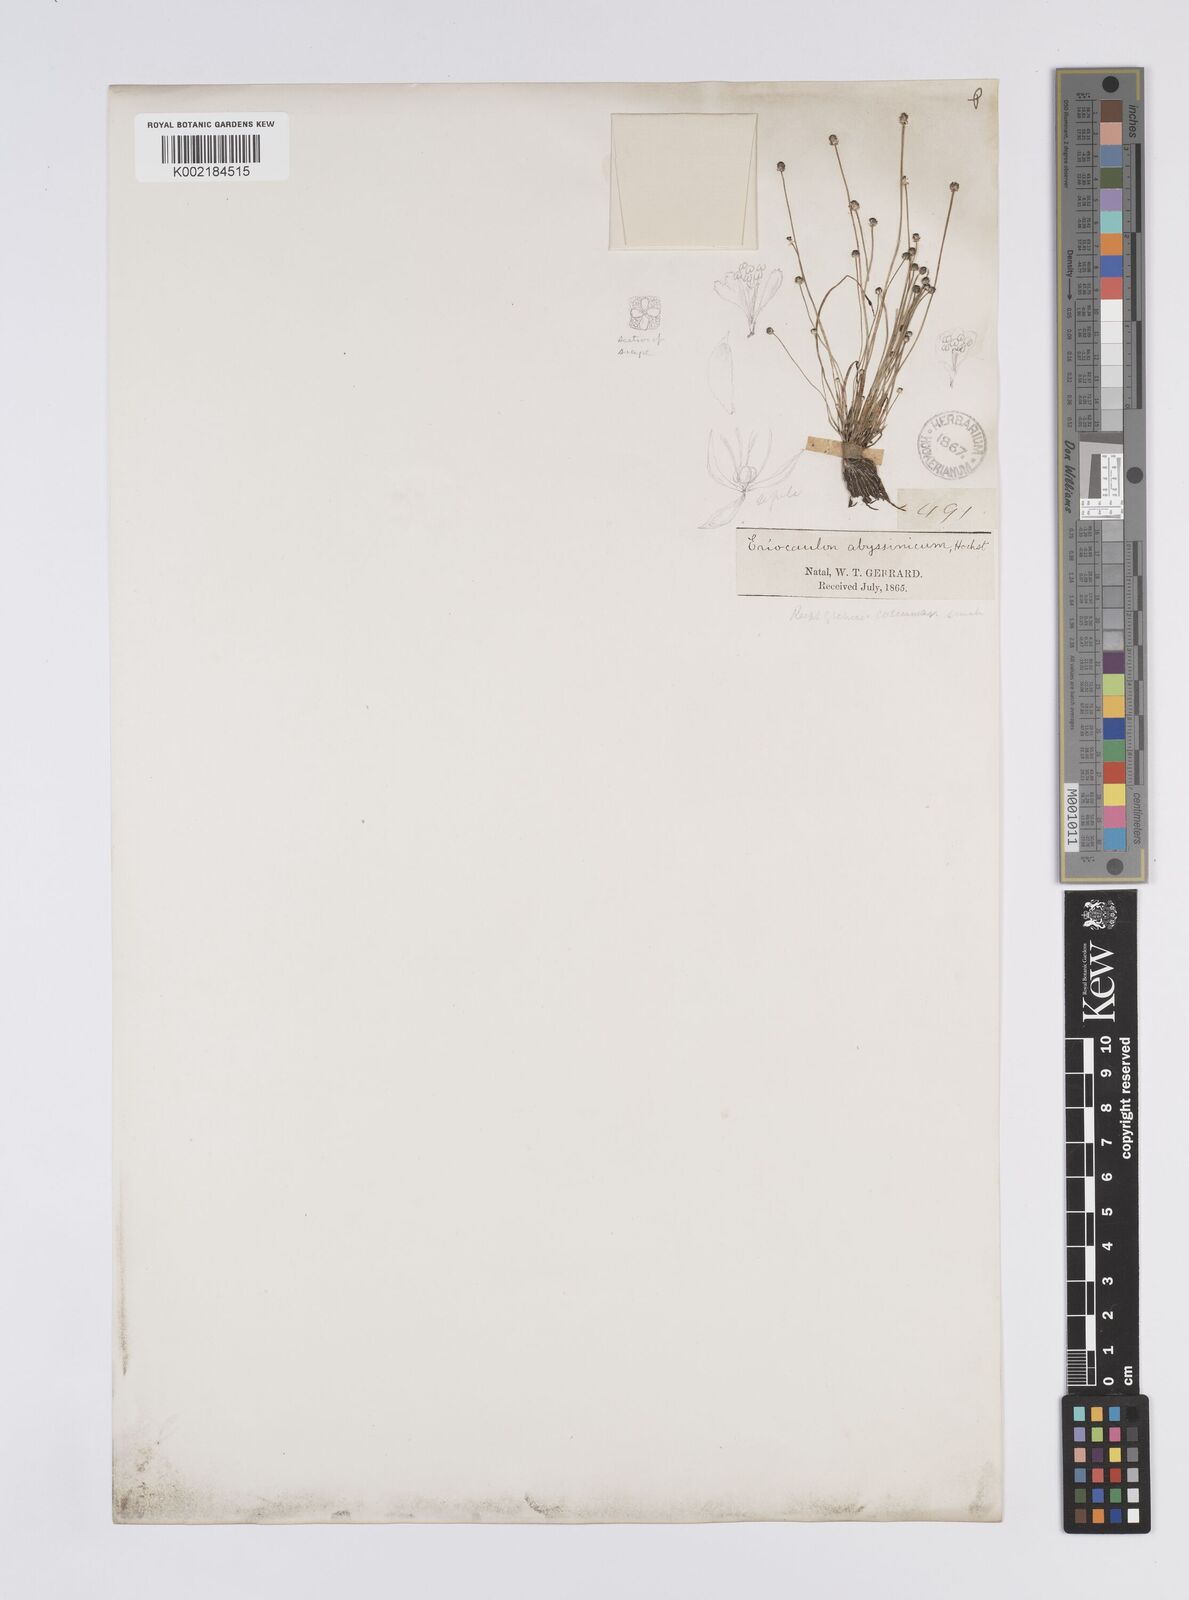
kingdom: Plantae
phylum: Tracheophyta
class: Liliopsida
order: Poales
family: Eriocaulaceae
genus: Eriocaulon
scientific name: Eriocaulon abyssinicum
